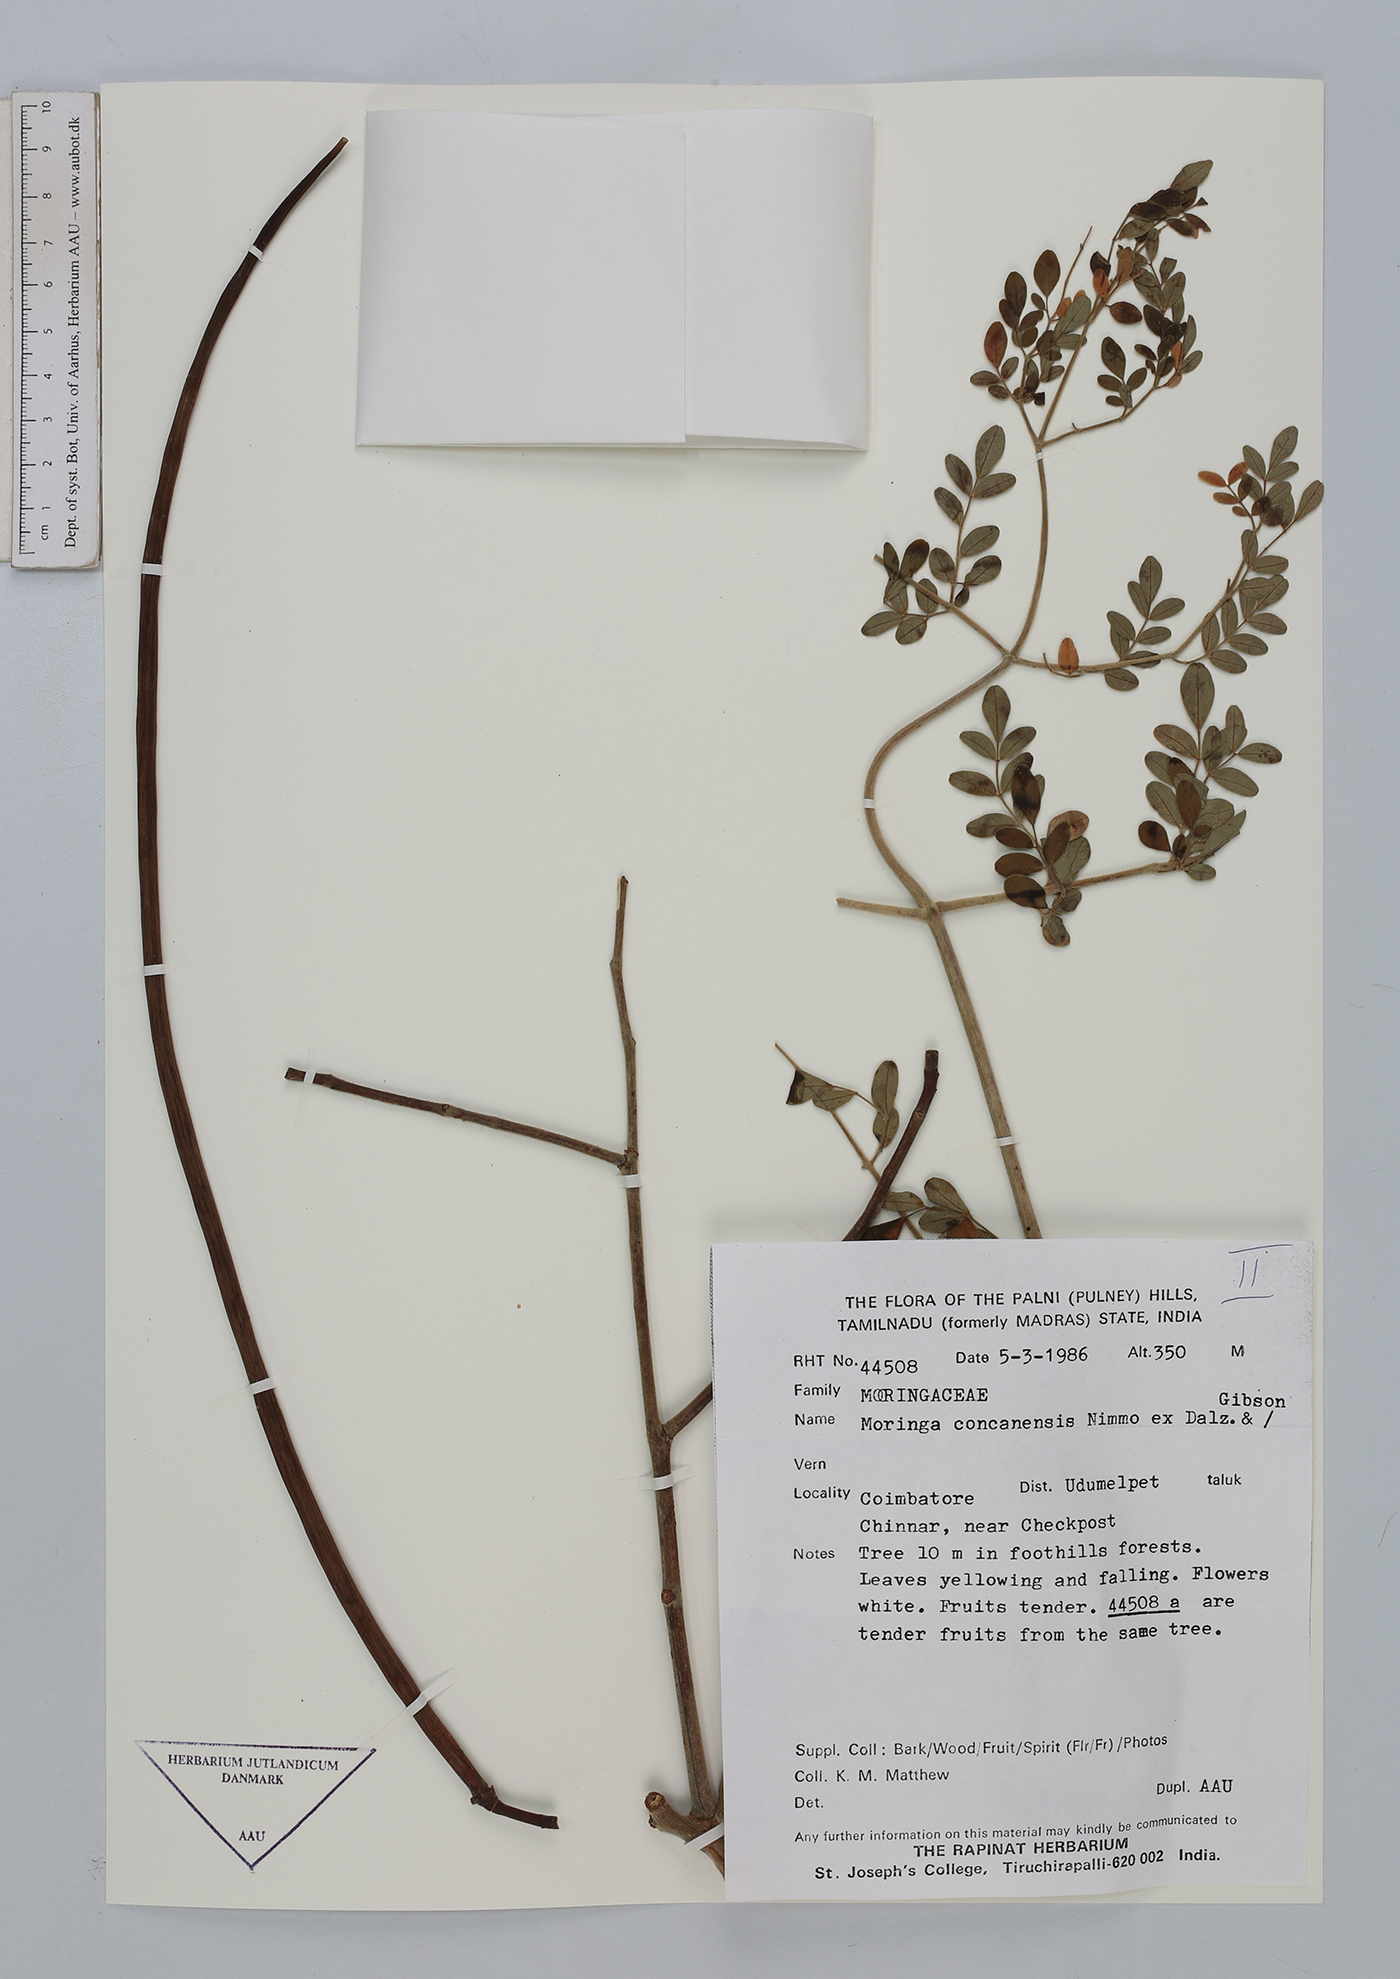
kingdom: Plantae
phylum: Tracheophyta
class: Magnoliopsida
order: Brassicales
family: Moringaceae
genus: Moringa
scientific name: Moringa concanensis
